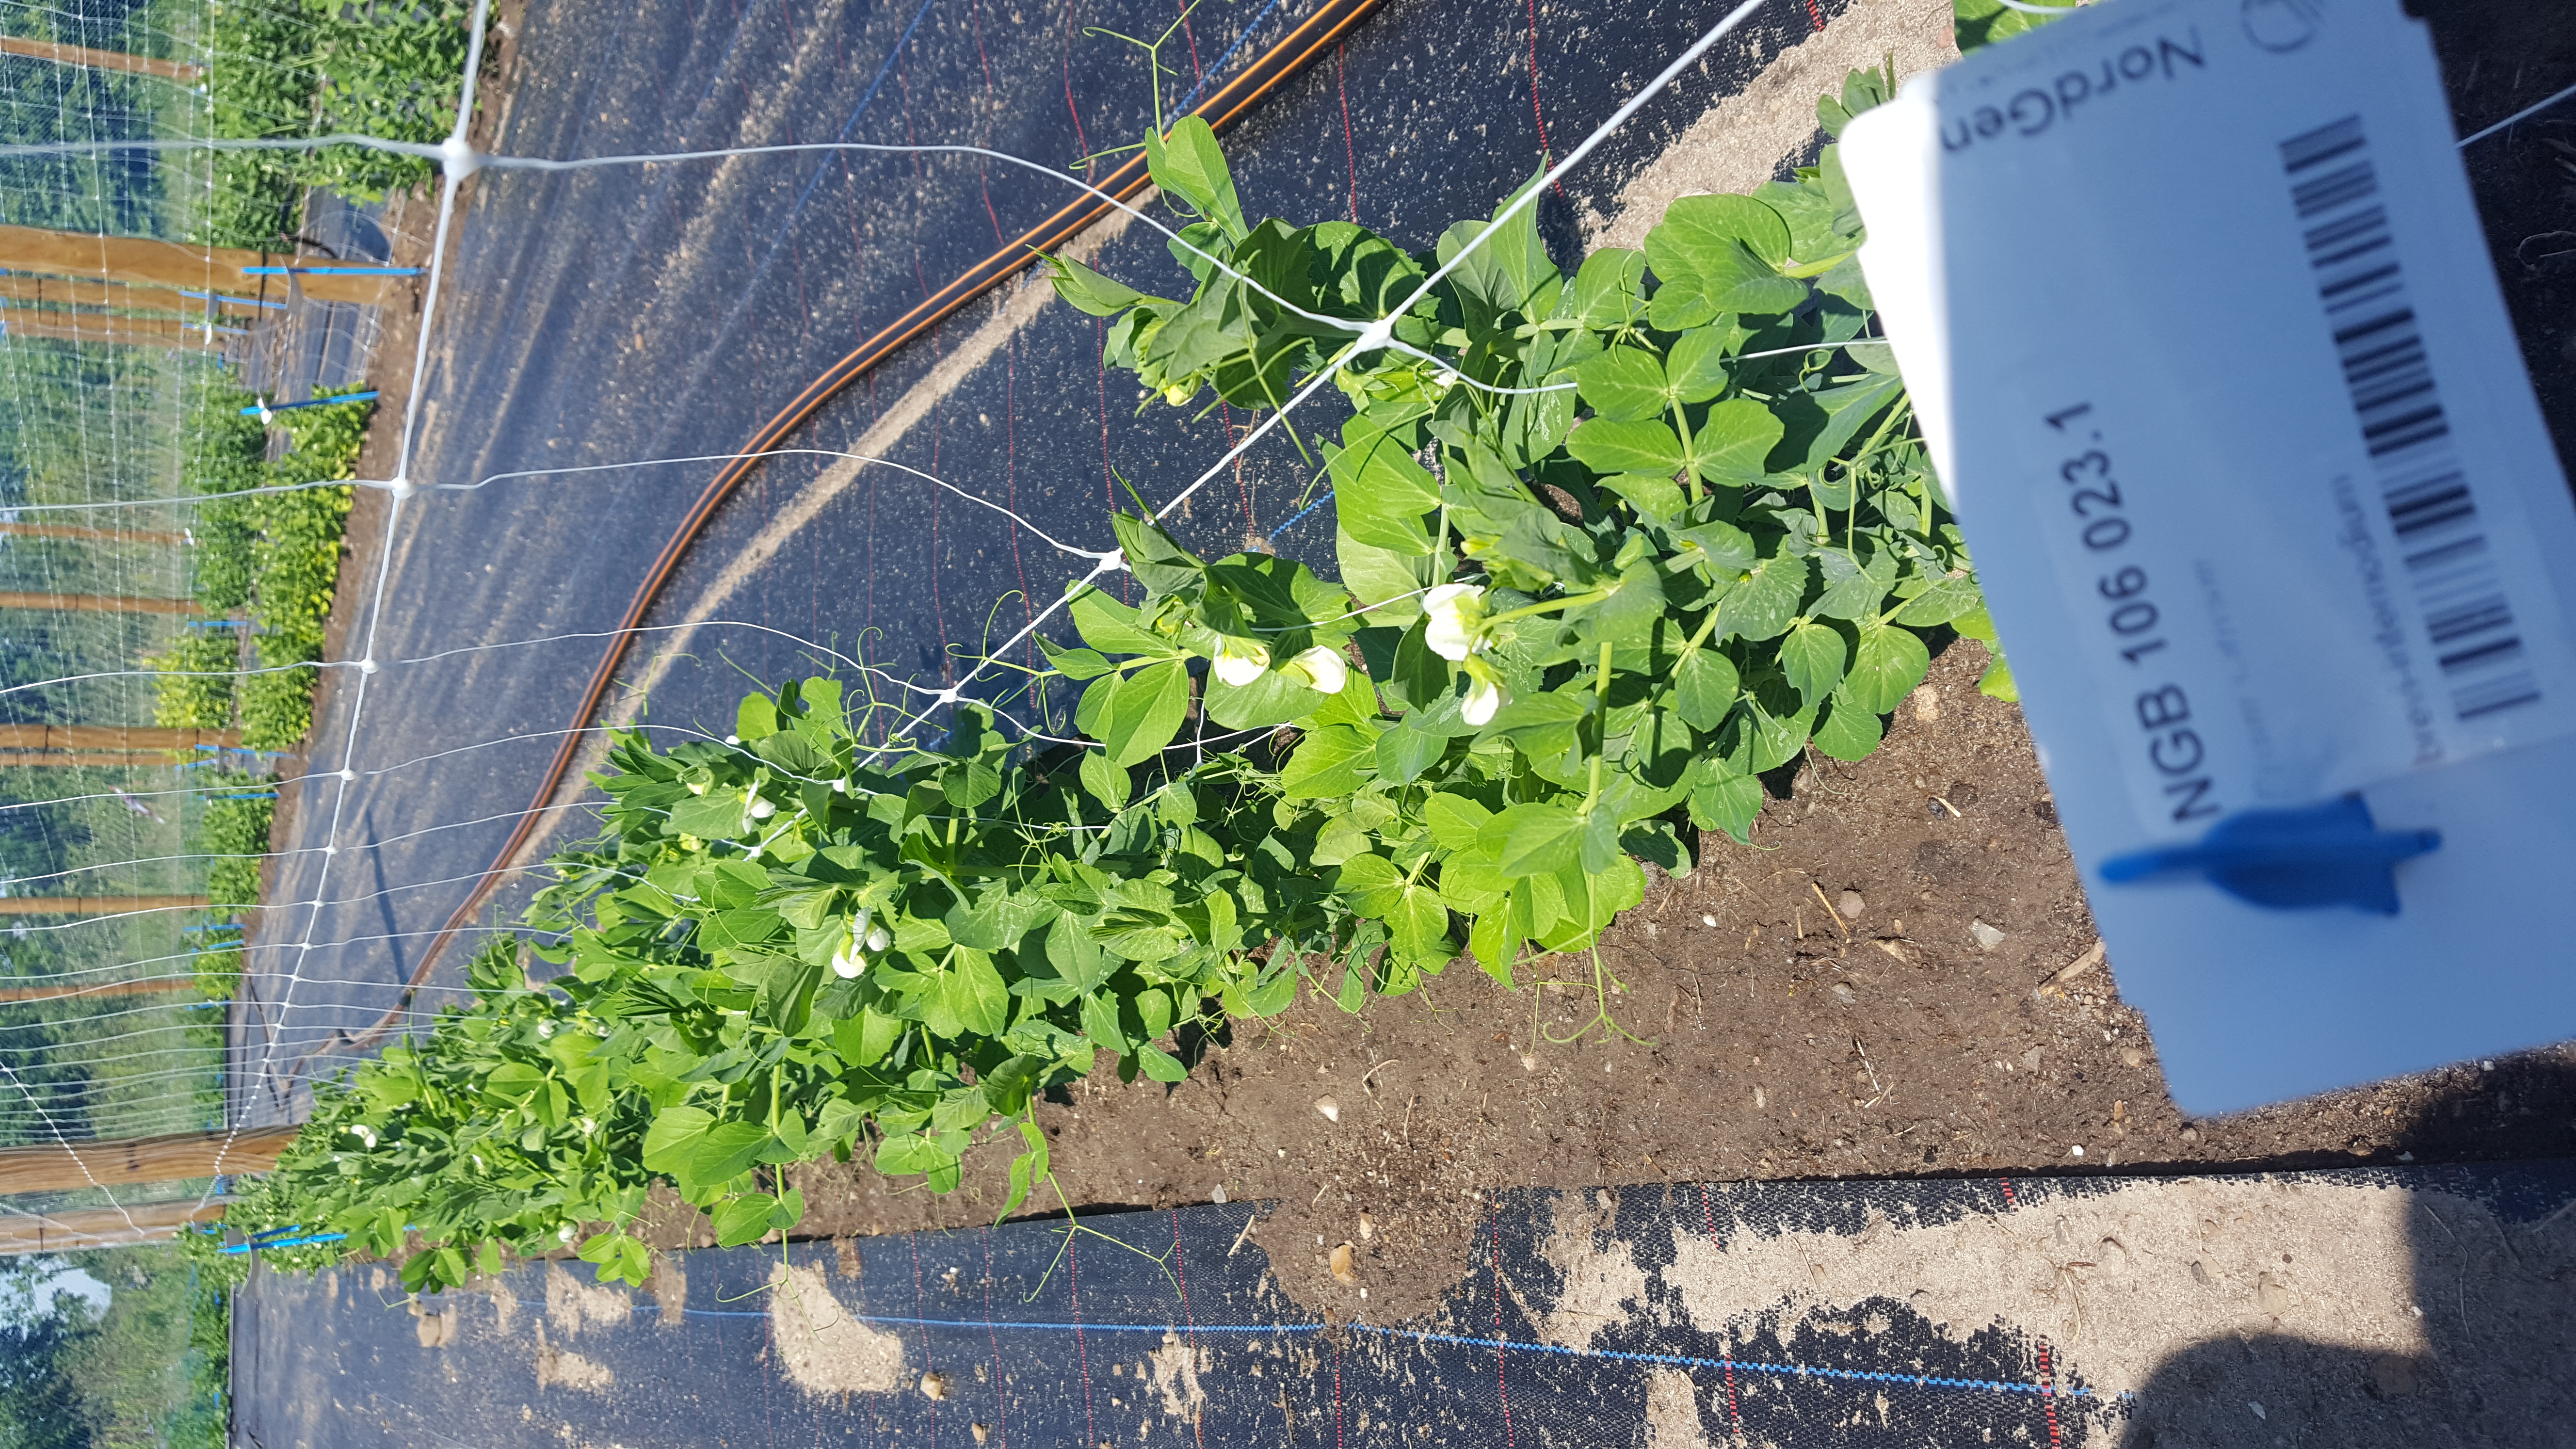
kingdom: Plantae
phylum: Tracheophyta
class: Magnoliopsida
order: Fabales
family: Fabaceae
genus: Lathyrus
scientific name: Lathyrus oleraceus
